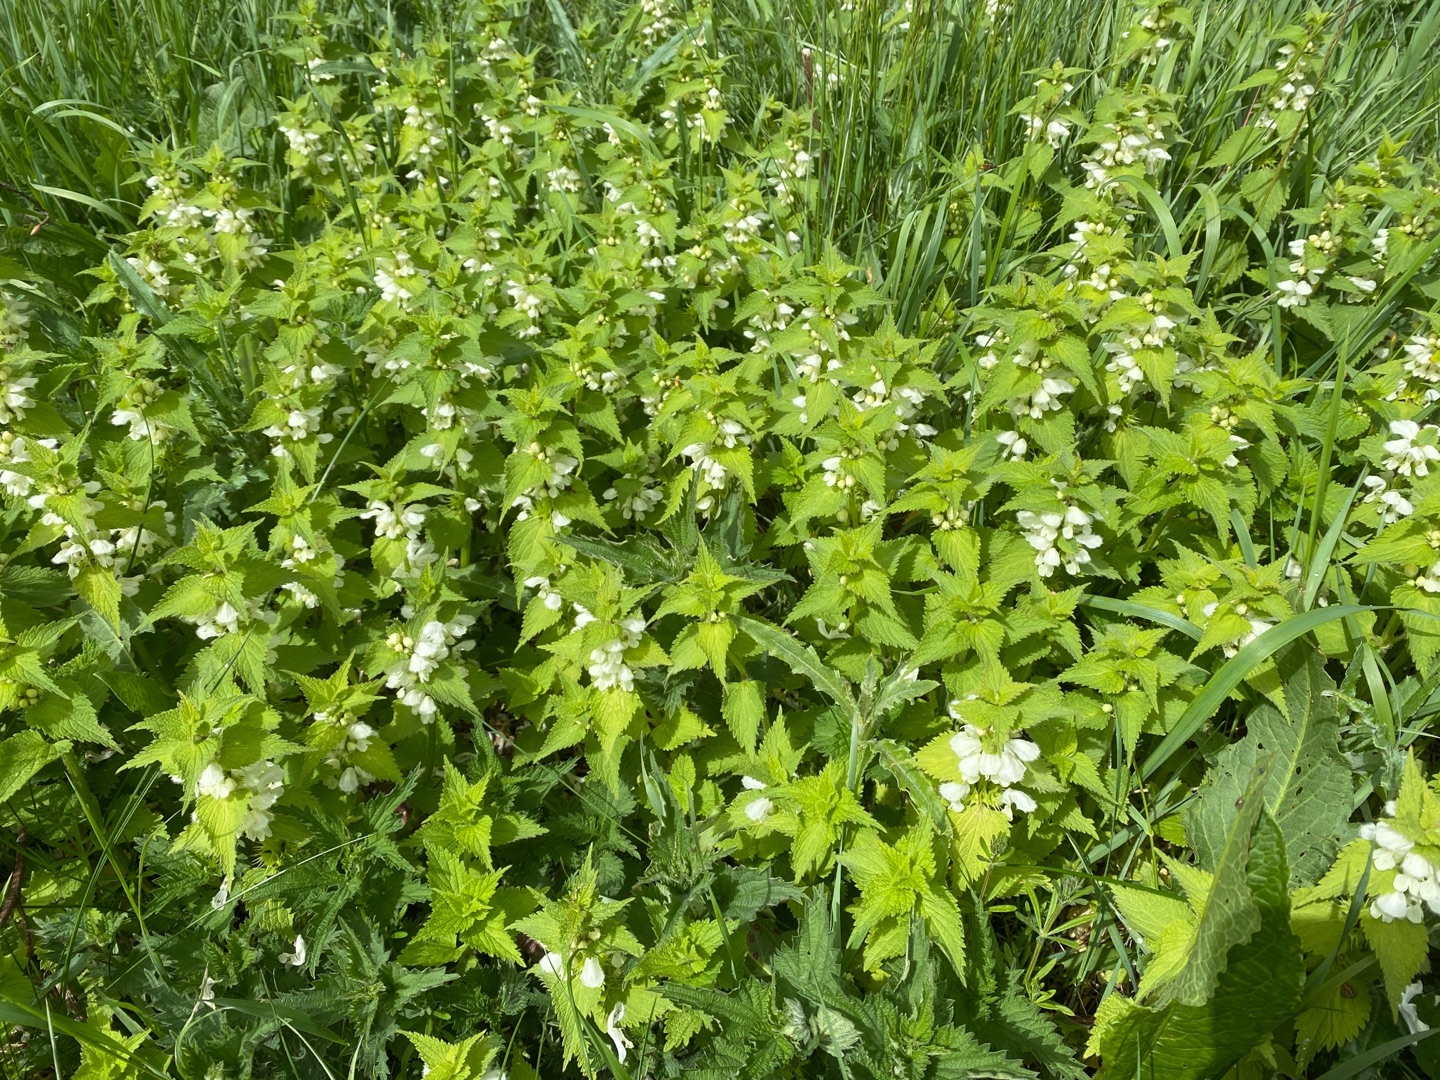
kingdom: Plantae
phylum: Tracheophyta
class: Magnoliopsida
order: Lamiales
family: Lamiaceae
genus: Lamium
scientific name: Lamium album
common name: Døvnælde
